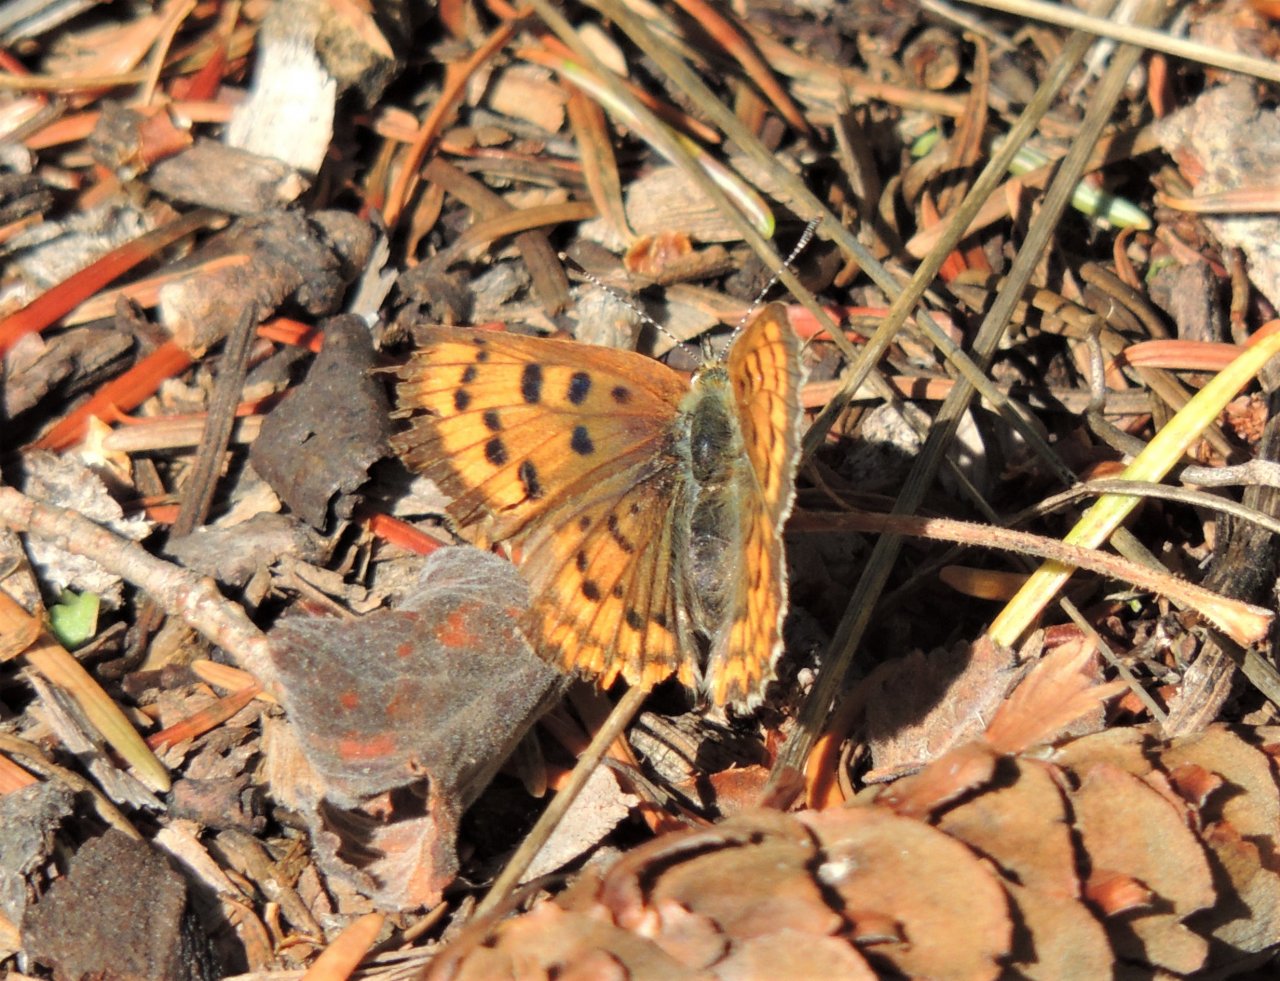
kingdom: Animalia
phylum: Arthropoda
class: Insecta
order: Lepidoptera
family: Sesiidae
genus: Sesia
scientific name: Sesia Lycaena helloides
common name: Purplish Copper
